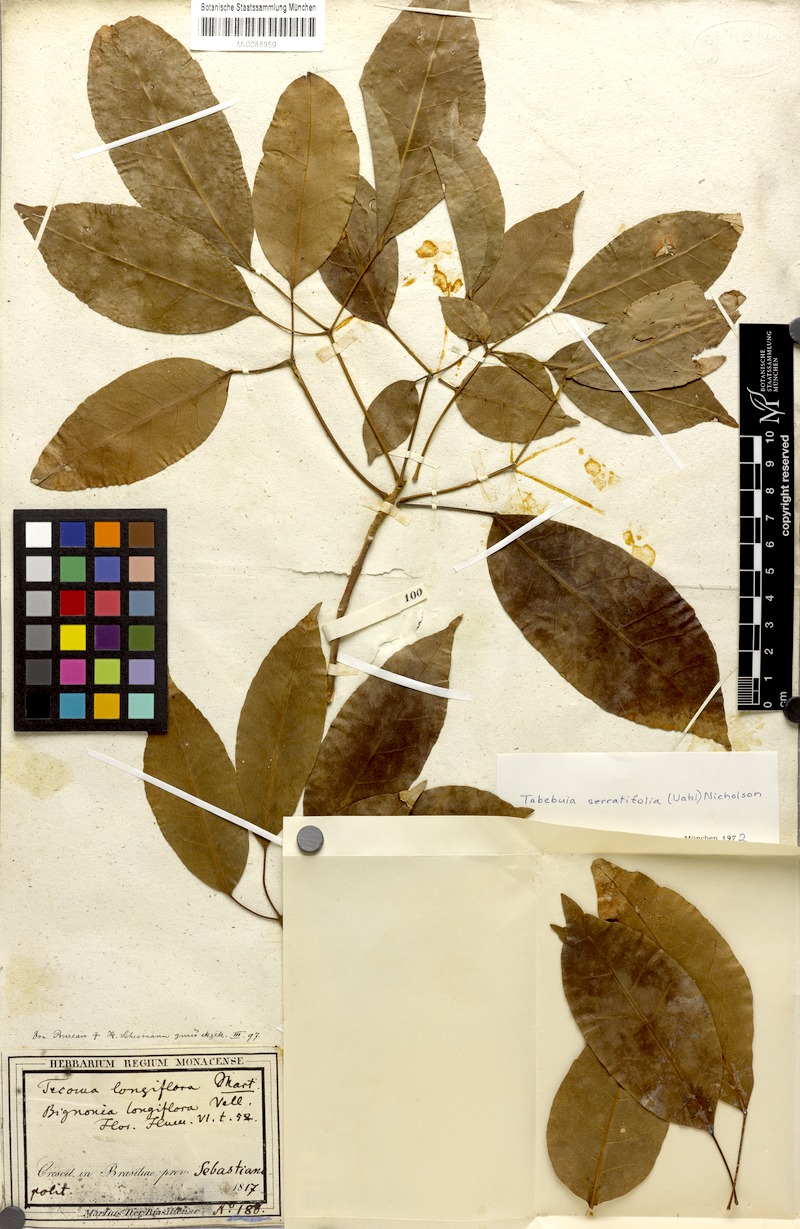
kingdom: Plantae
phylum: Tracheophyta
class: Magnoliopsida
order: Lamiales
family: Bignoniaceae
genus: Handroanthus
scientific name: Handroanthus serratifolius
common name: Yellow ipe
